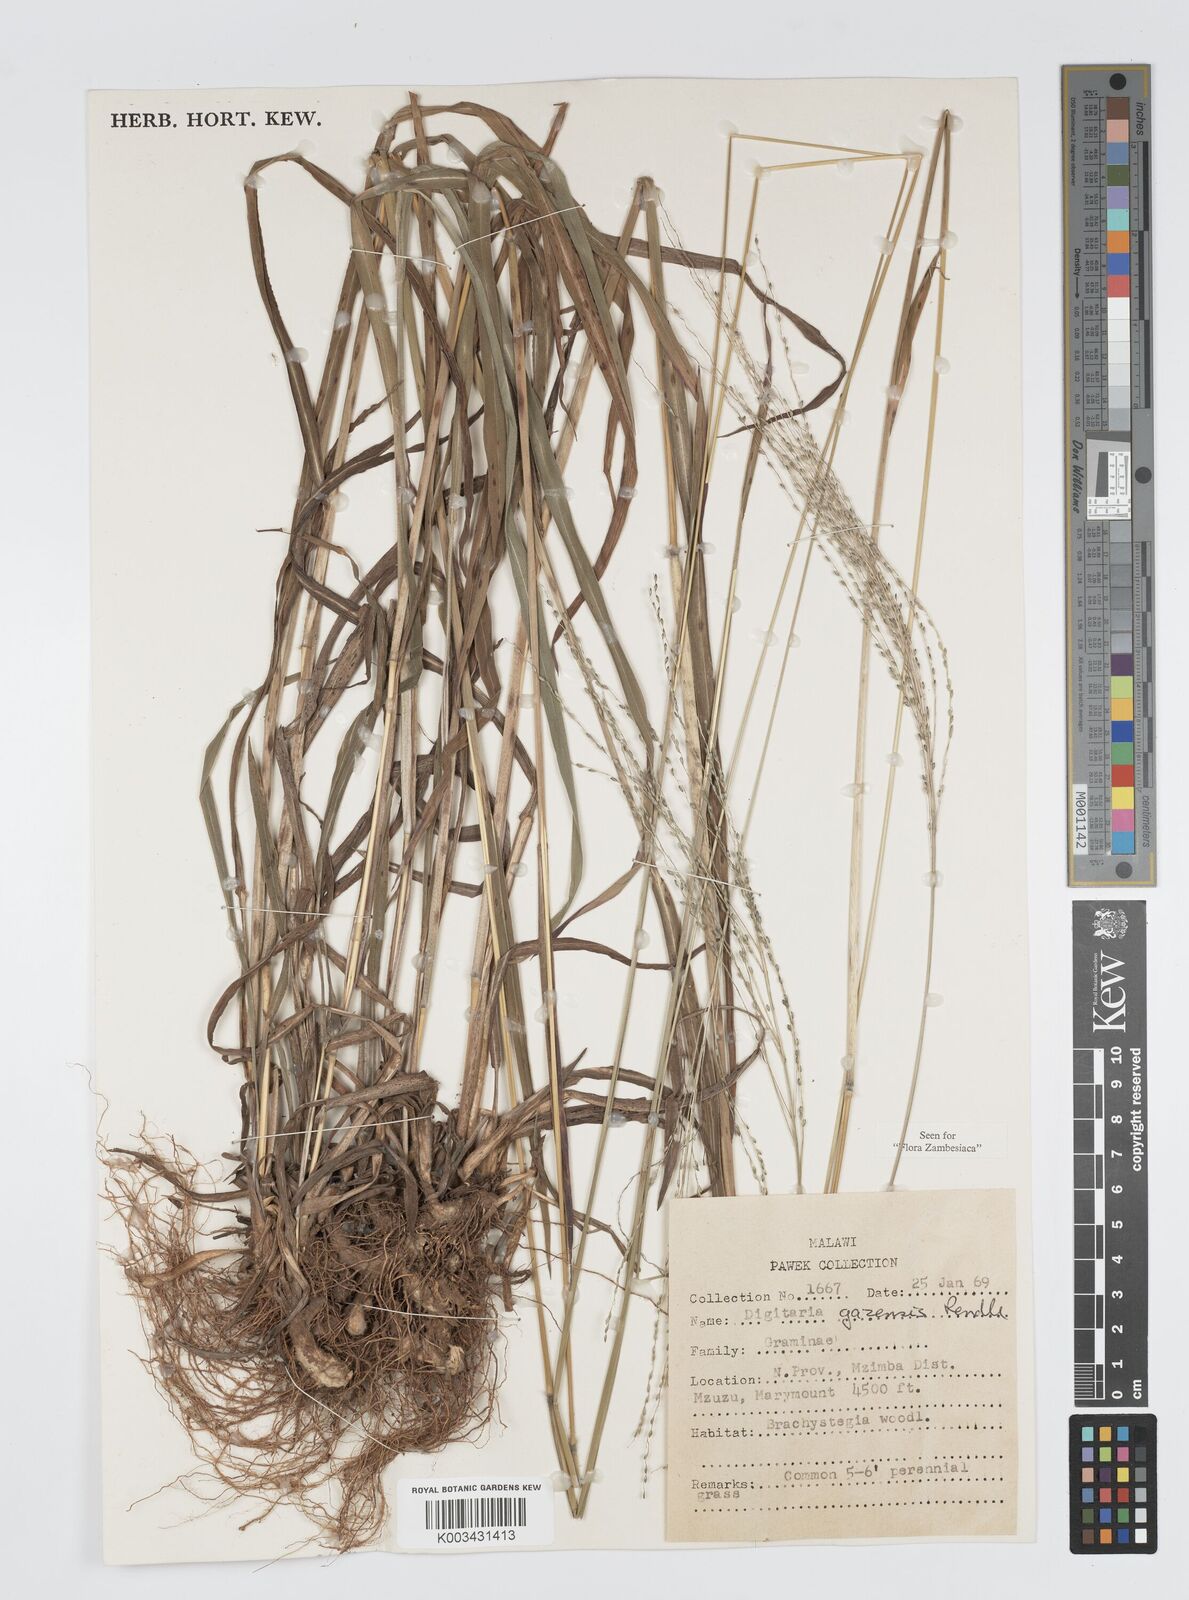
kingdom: Plantae
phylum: Tracheophyta
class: Liliopsida
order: Poales
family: Poaceae
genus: Digitaria
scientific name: Digitaria gazensis
